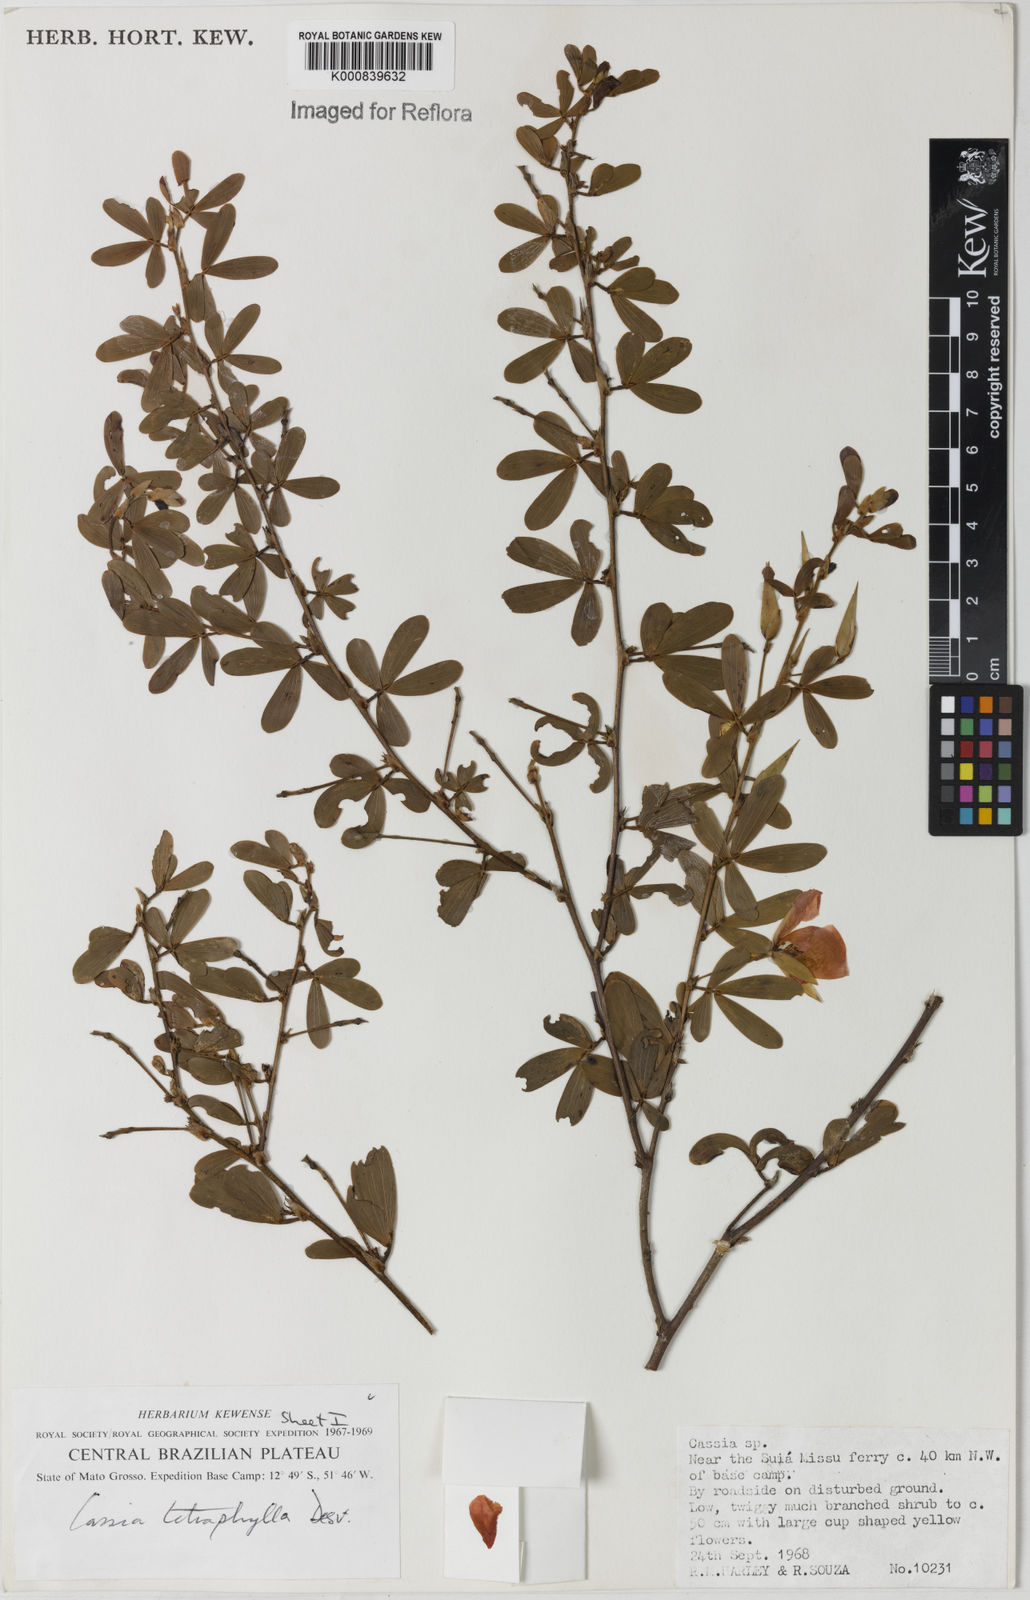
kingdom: Plantae
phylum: Tracheophyta
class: Magnoliopsida
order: Fabales
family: Fabaceae
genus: Chamaecrista
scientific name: Chamaecrista desvauxii
